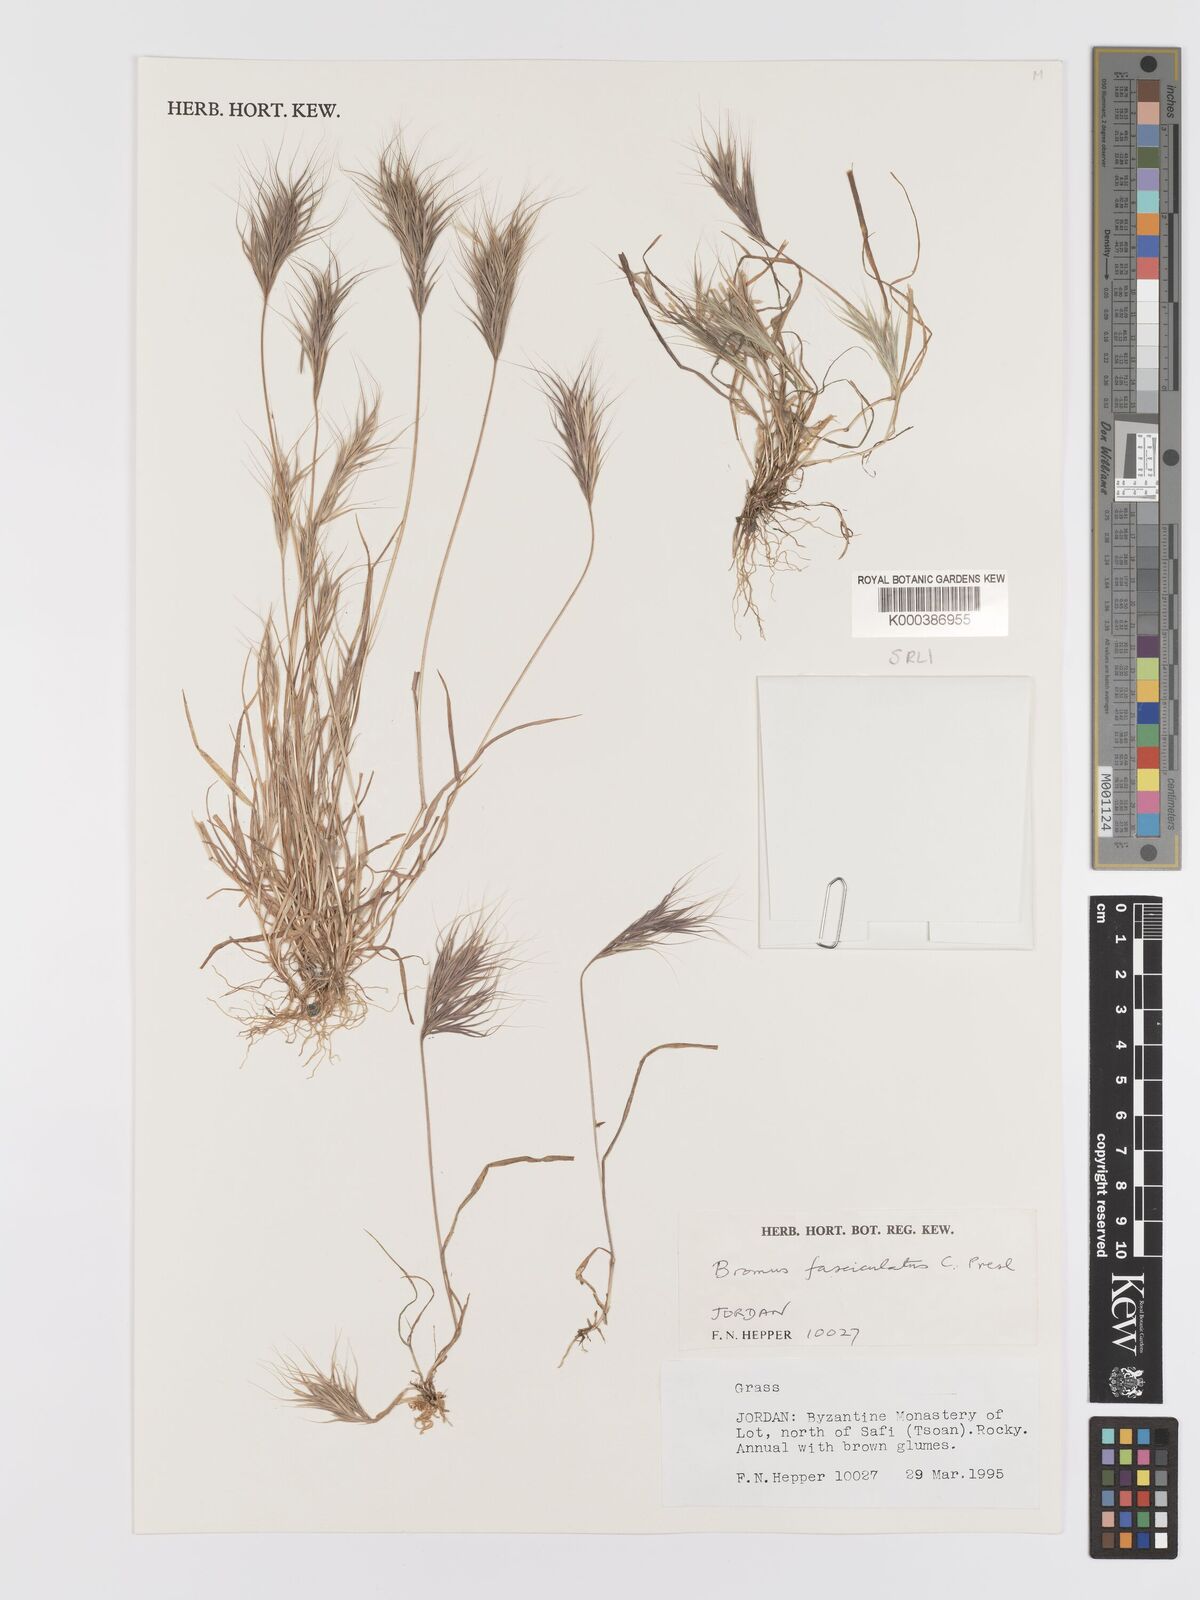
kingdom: Plantae
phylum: Tracheophyta
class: Liliopsida
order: Poales
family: Poaceae
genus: Bromus
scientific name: Bromus fasciculatus
